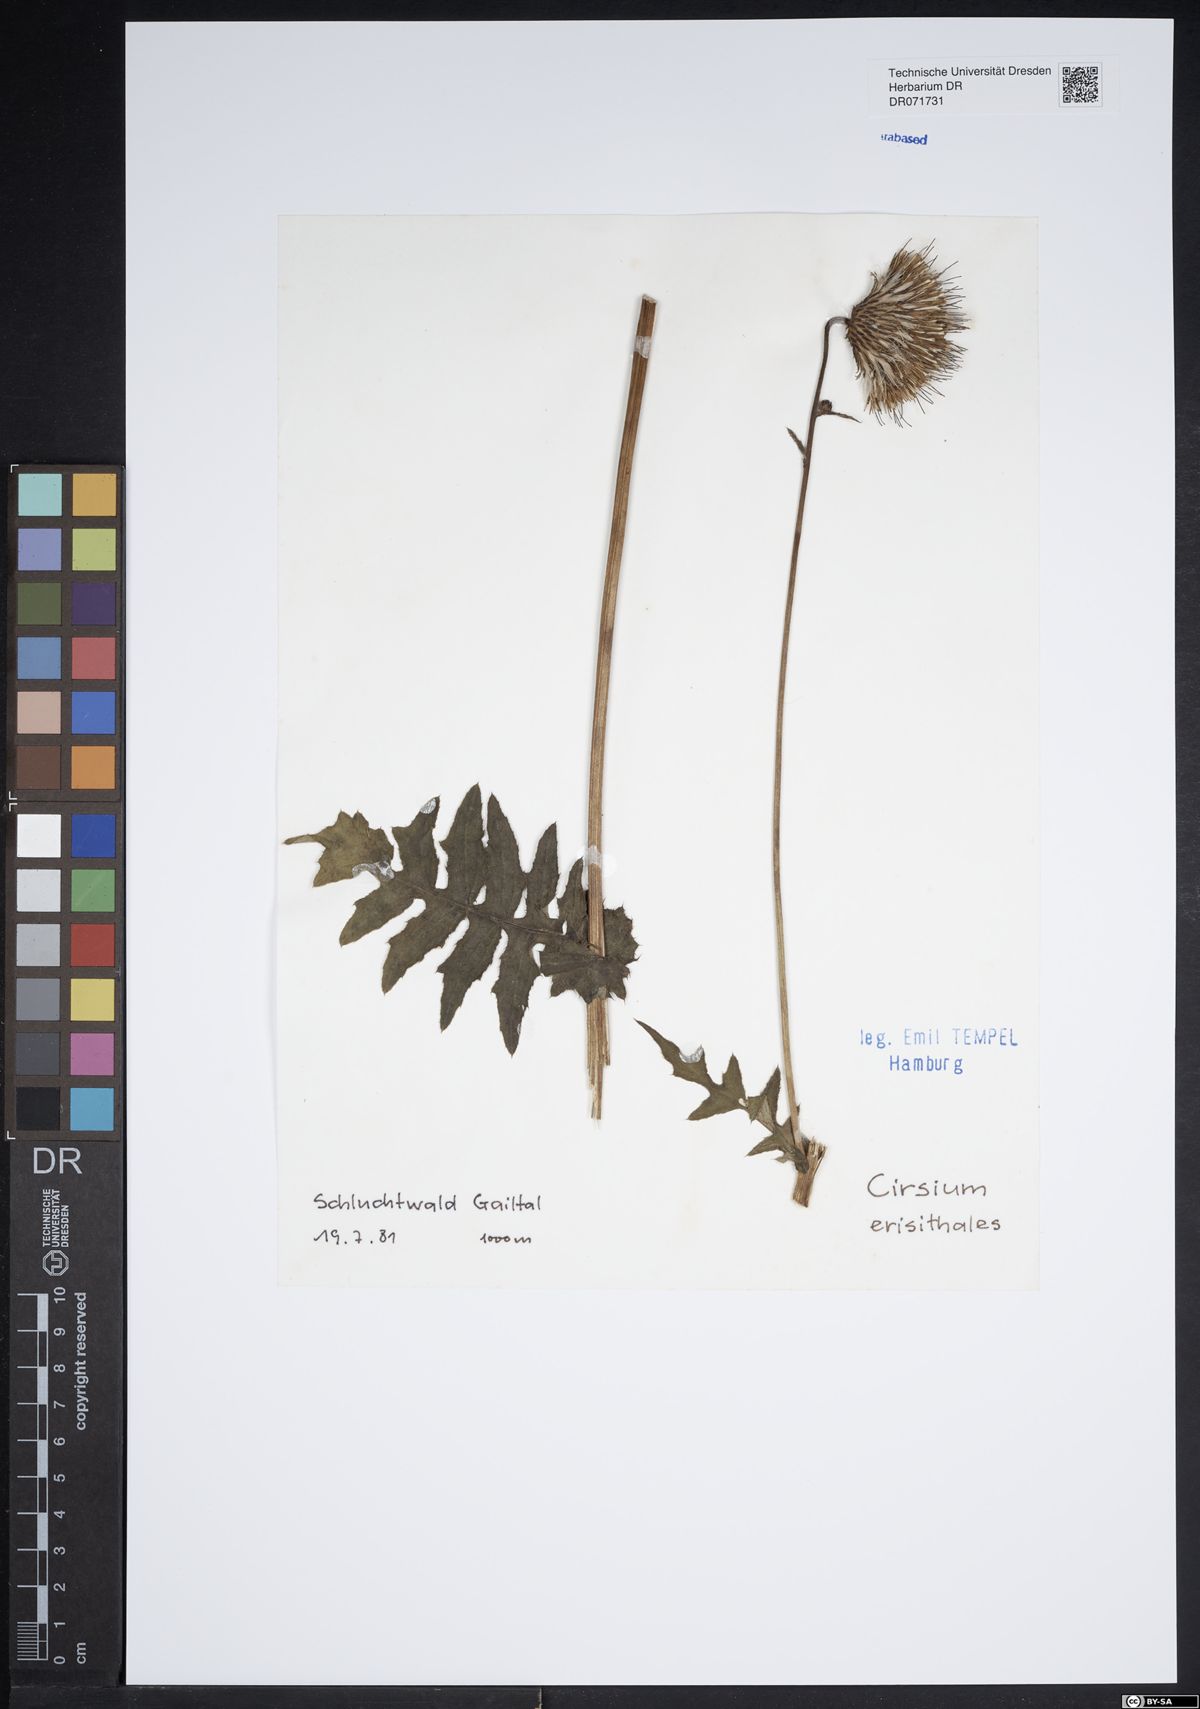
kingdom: Plantae
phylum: Tracheophyta
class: Magnoliopsida
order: Asterales
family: Asteraceae
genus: Cirsium
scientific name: Cirsium erisithales
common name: Yellow thistle
